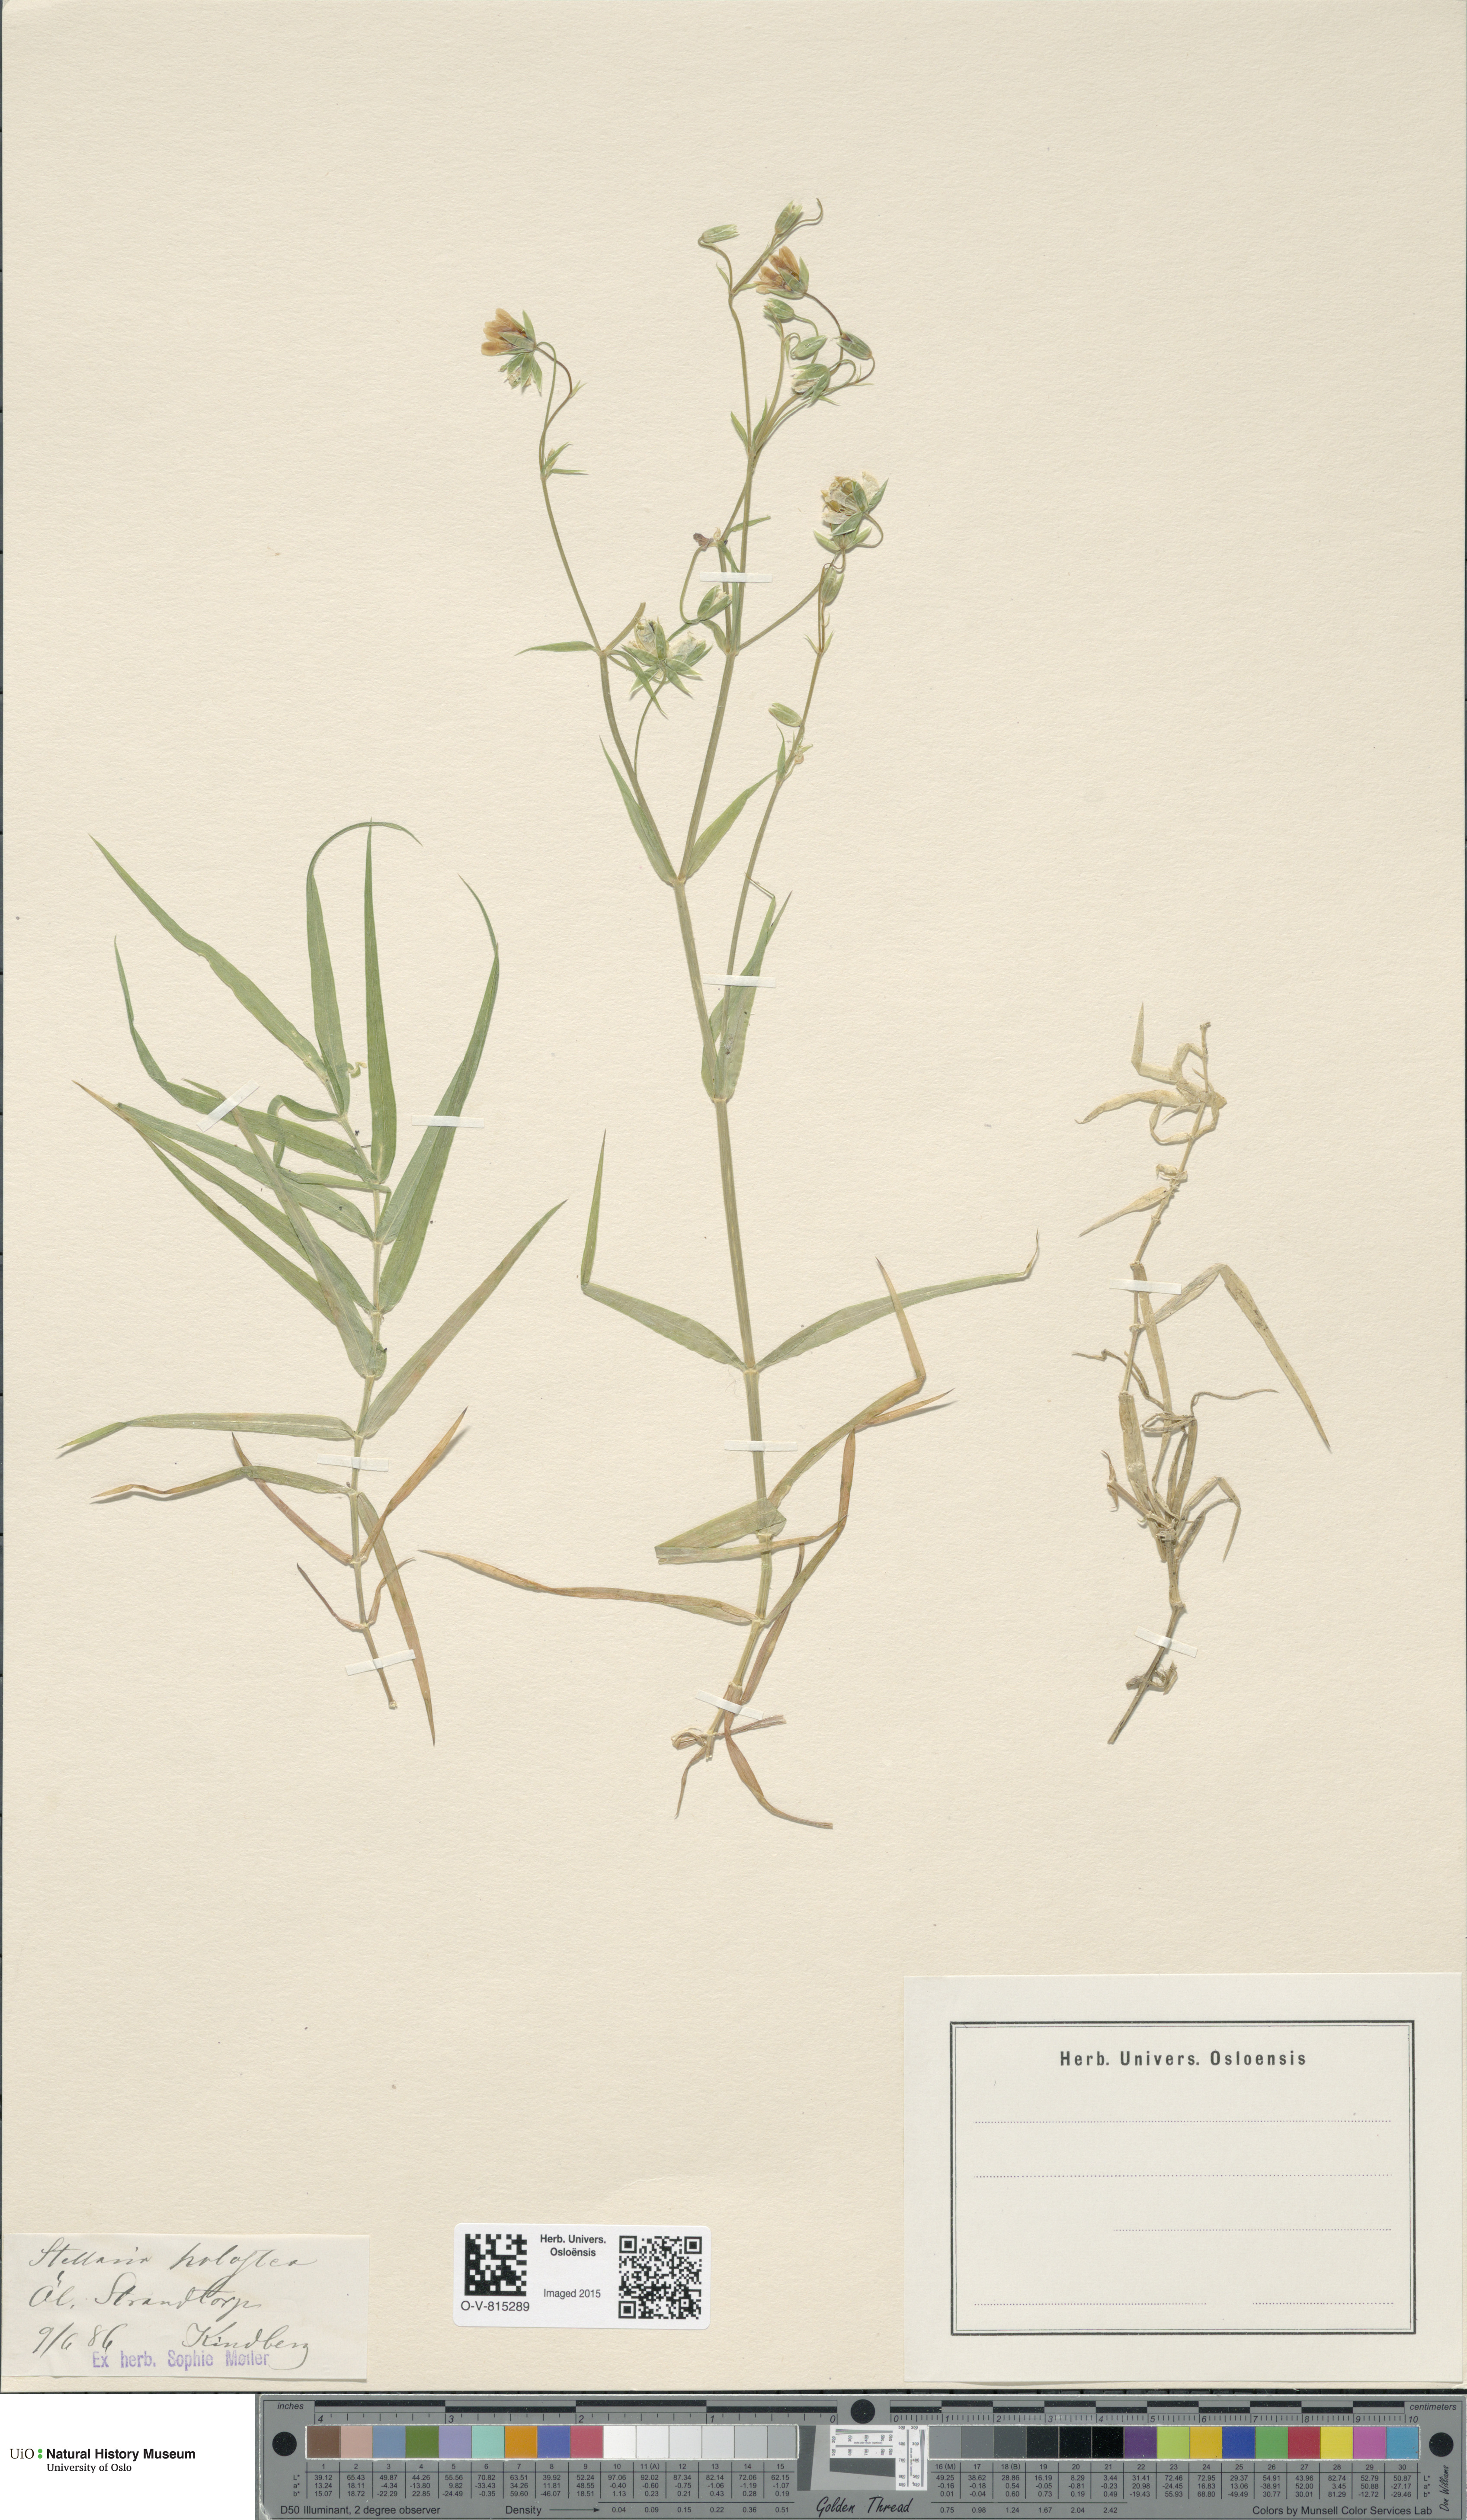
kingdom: Plantae
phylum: Tracheophyta
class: Magnoliopsida
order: Caryophyllales
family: Caryophyllaceae
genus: Rabelera
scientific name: Rabelera holostea
